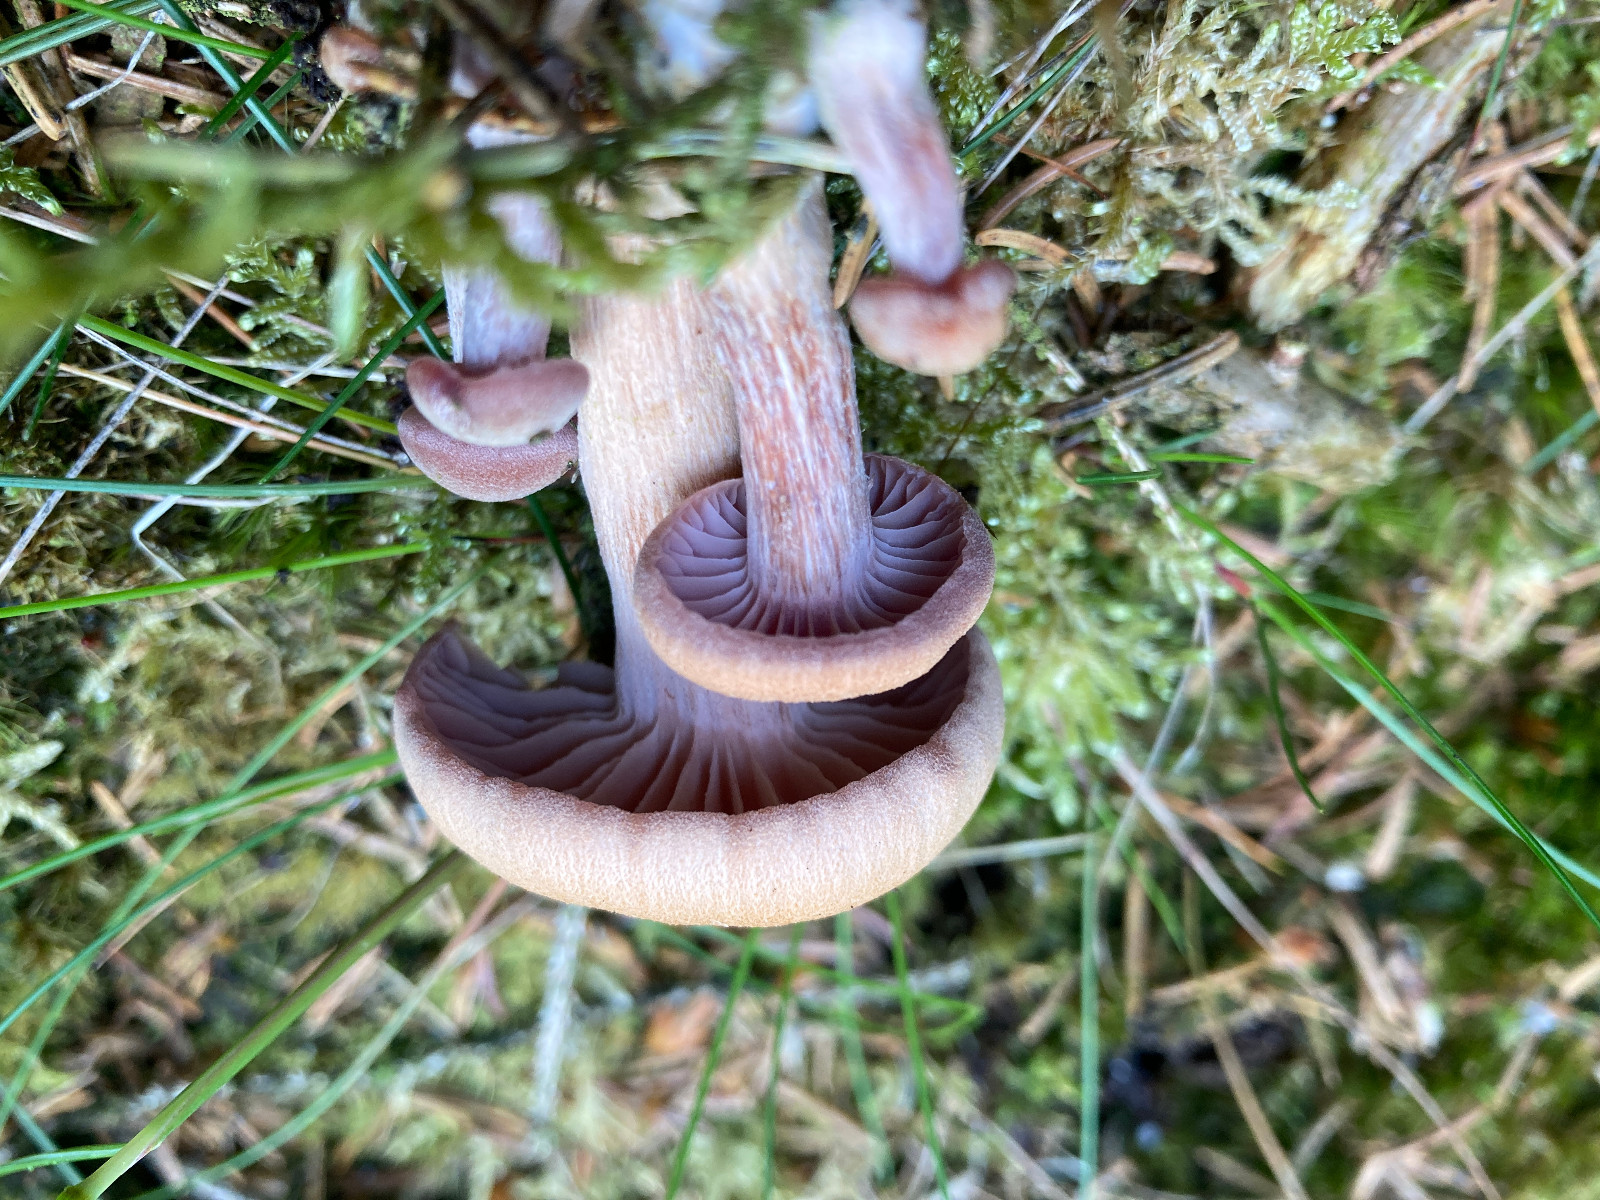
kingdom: Fungi
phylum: Basidiomycota
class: Agaricomycetes
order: Agaricales
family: Hydnangiaceae
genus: Laccaria
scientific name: Laccaria
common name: ametysthat
